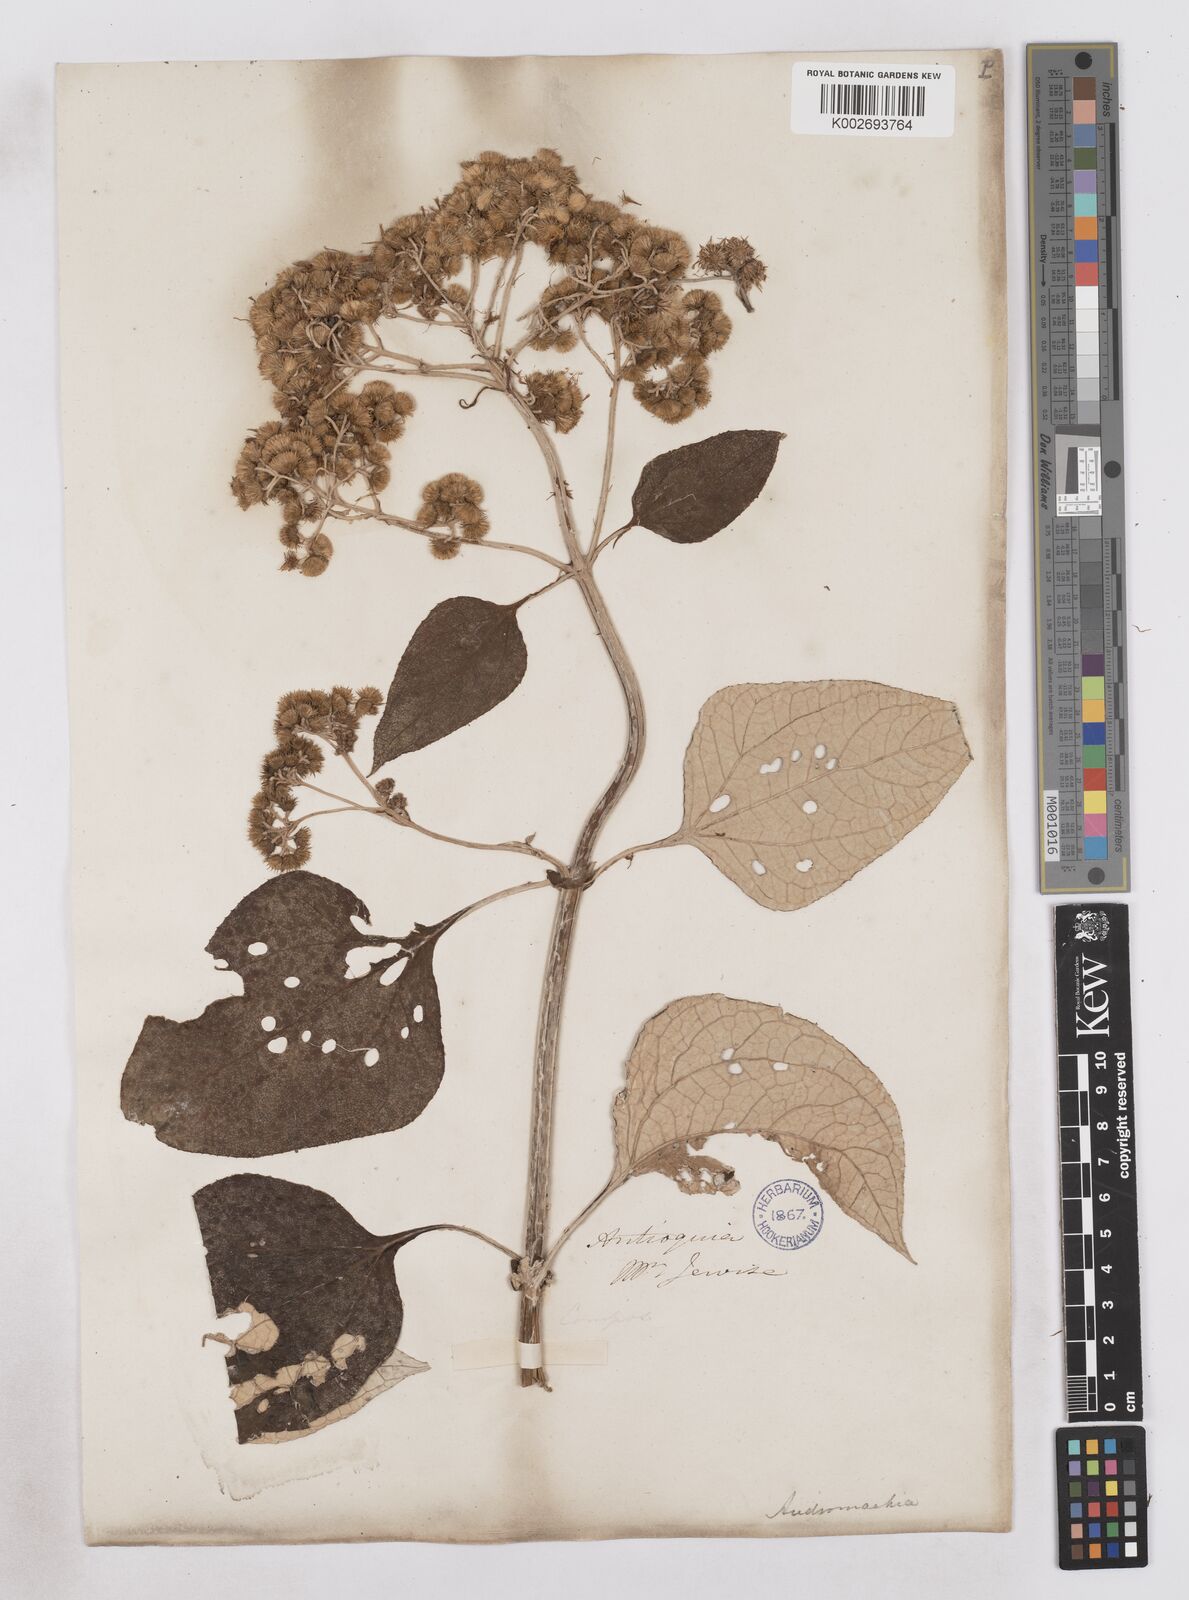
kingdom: Plantae
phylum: Tracheophyta
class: Magnoliopsida
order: Asterales
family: Asteraceae
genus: Platycarphella
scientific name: Platycarphella
